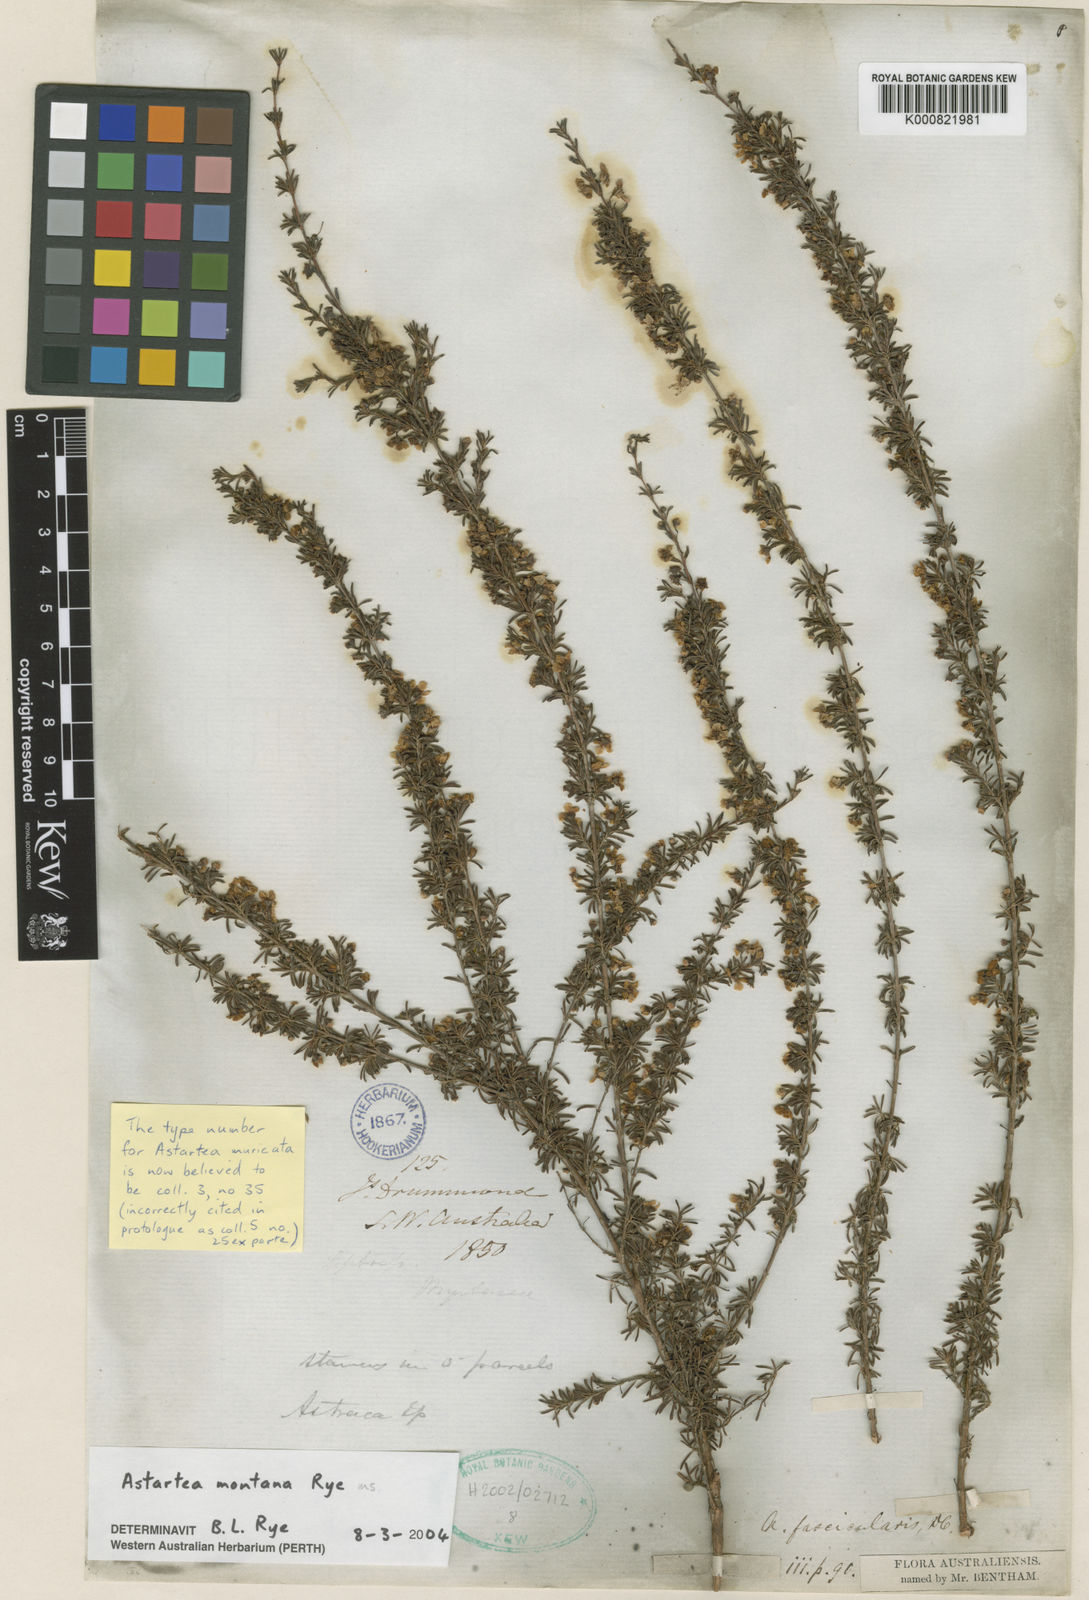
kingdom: Plantae
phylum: Tracheophyta
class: Magnoliopsida
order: Myrtales
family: Myrtaceae
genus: Astartea
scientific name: Astartea montana
